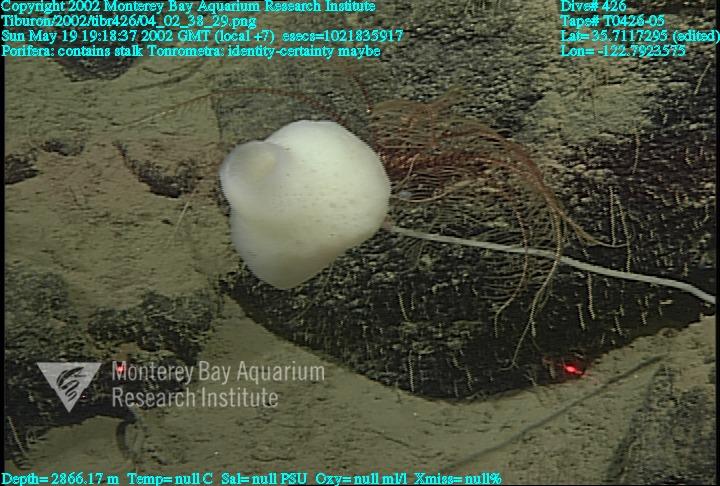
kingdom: Animalia
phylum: Porifera
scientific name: Porifera
